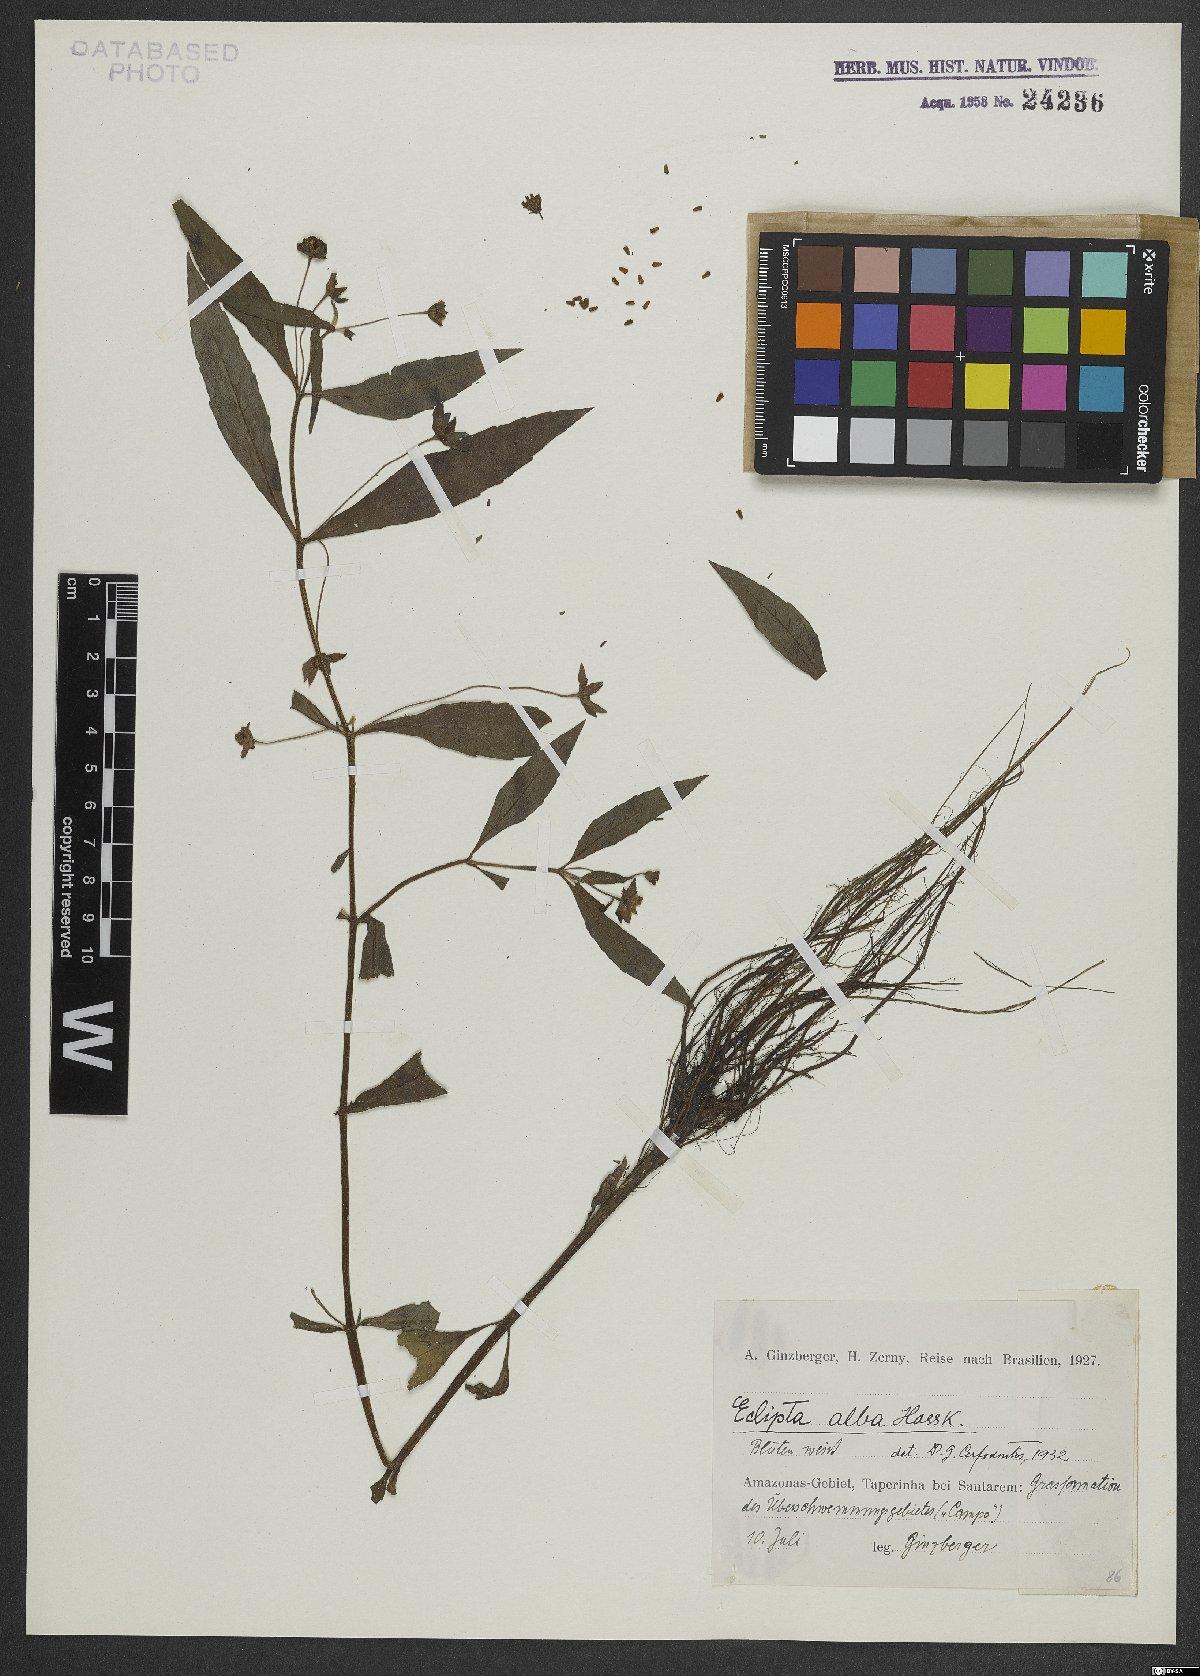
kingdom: Plantae
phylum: Tracheophyta
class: Magnoliopsida
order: Asterales
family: Asteraceae
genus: Eclipta
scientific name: Eclipta alba
